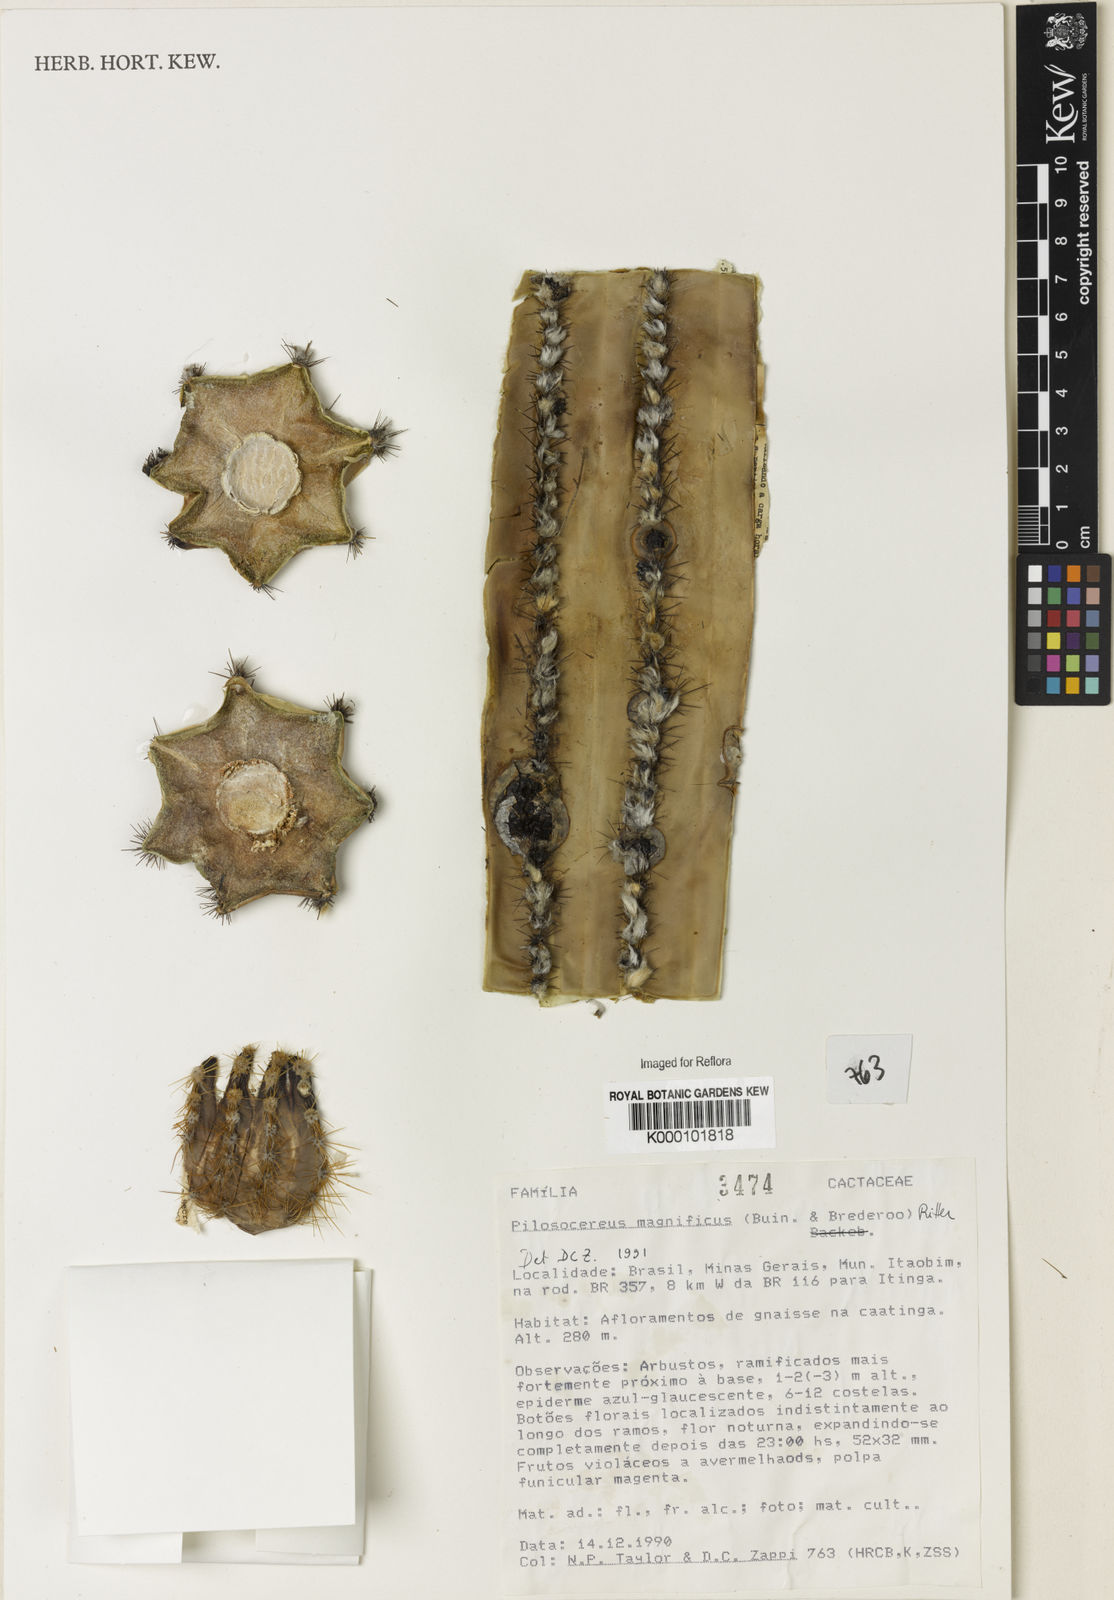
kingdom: Plantae
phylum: Tracheophyta
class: Magnoliopsida
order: Caryophyllales
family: Cactaceae
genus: Pilosocereus
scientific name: Pilosocereus
